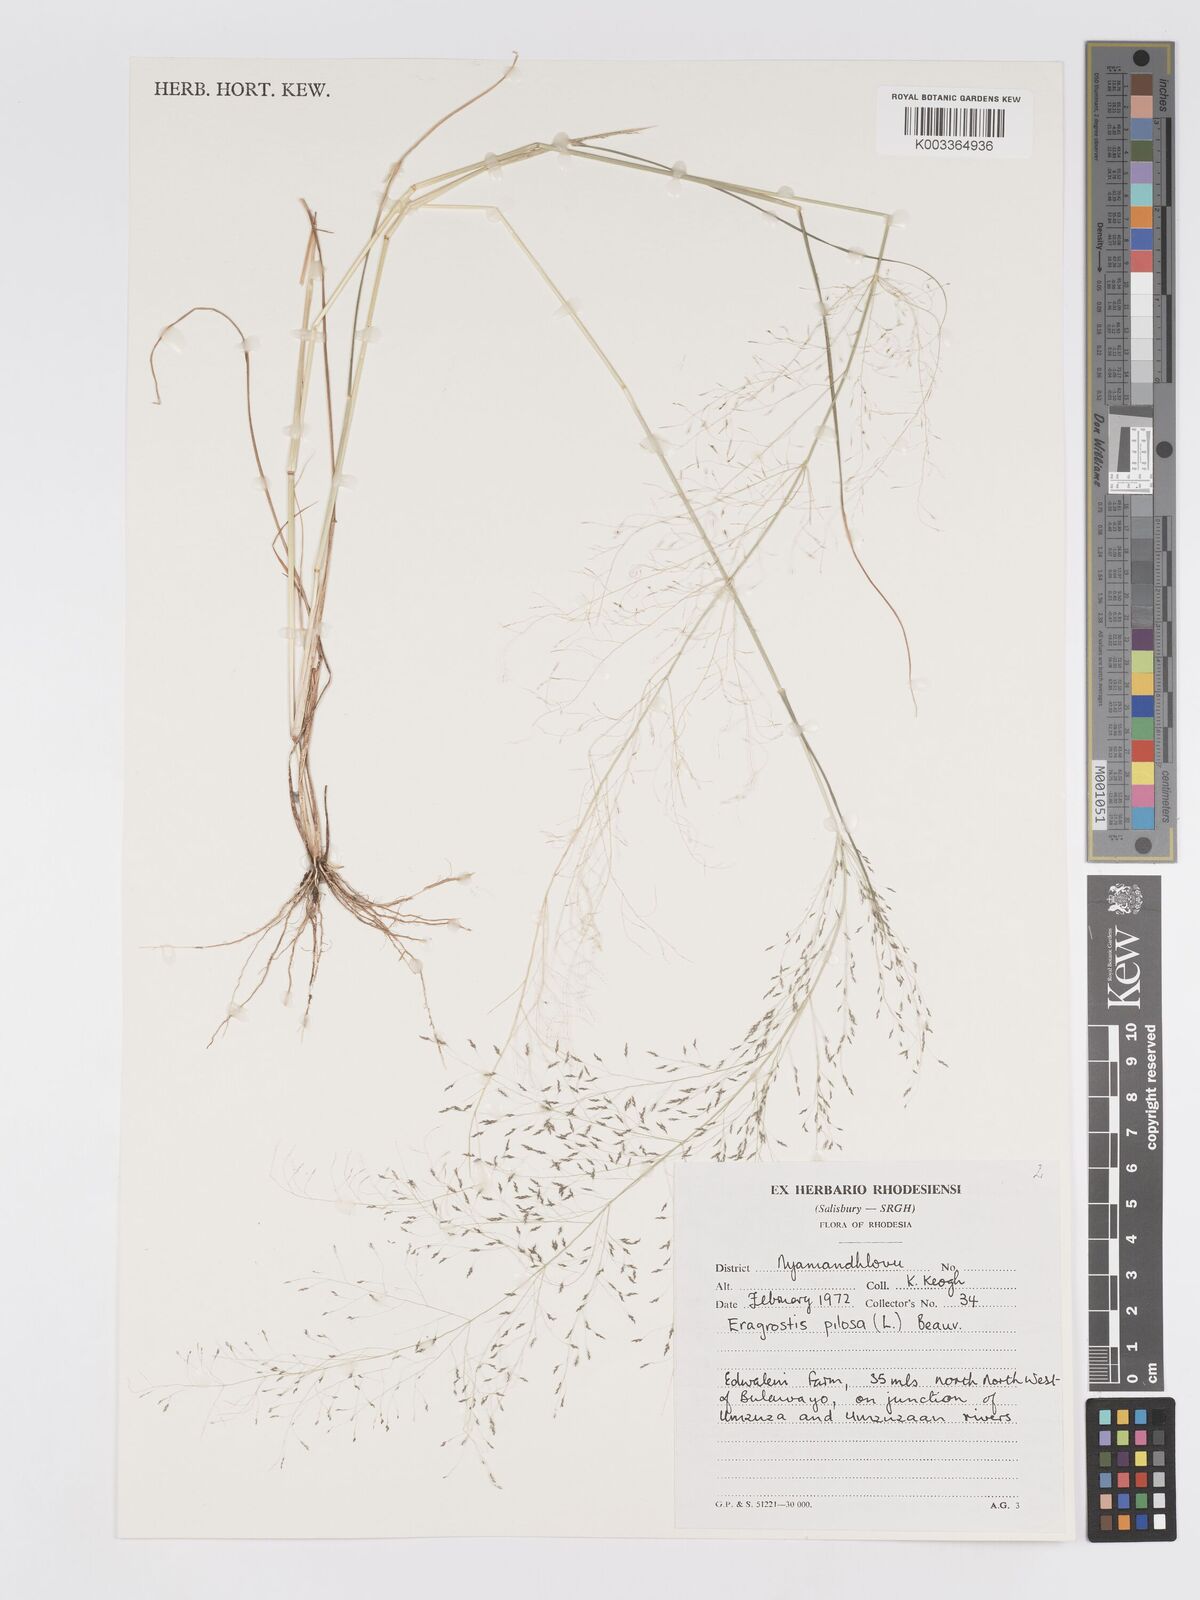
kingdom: Plantae
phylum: Tracheophyta
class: Liliopsida
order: Poales
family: Poaceae
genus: Eragrostis
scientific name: Eragrostis pilosa
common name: Indian lovegrass
